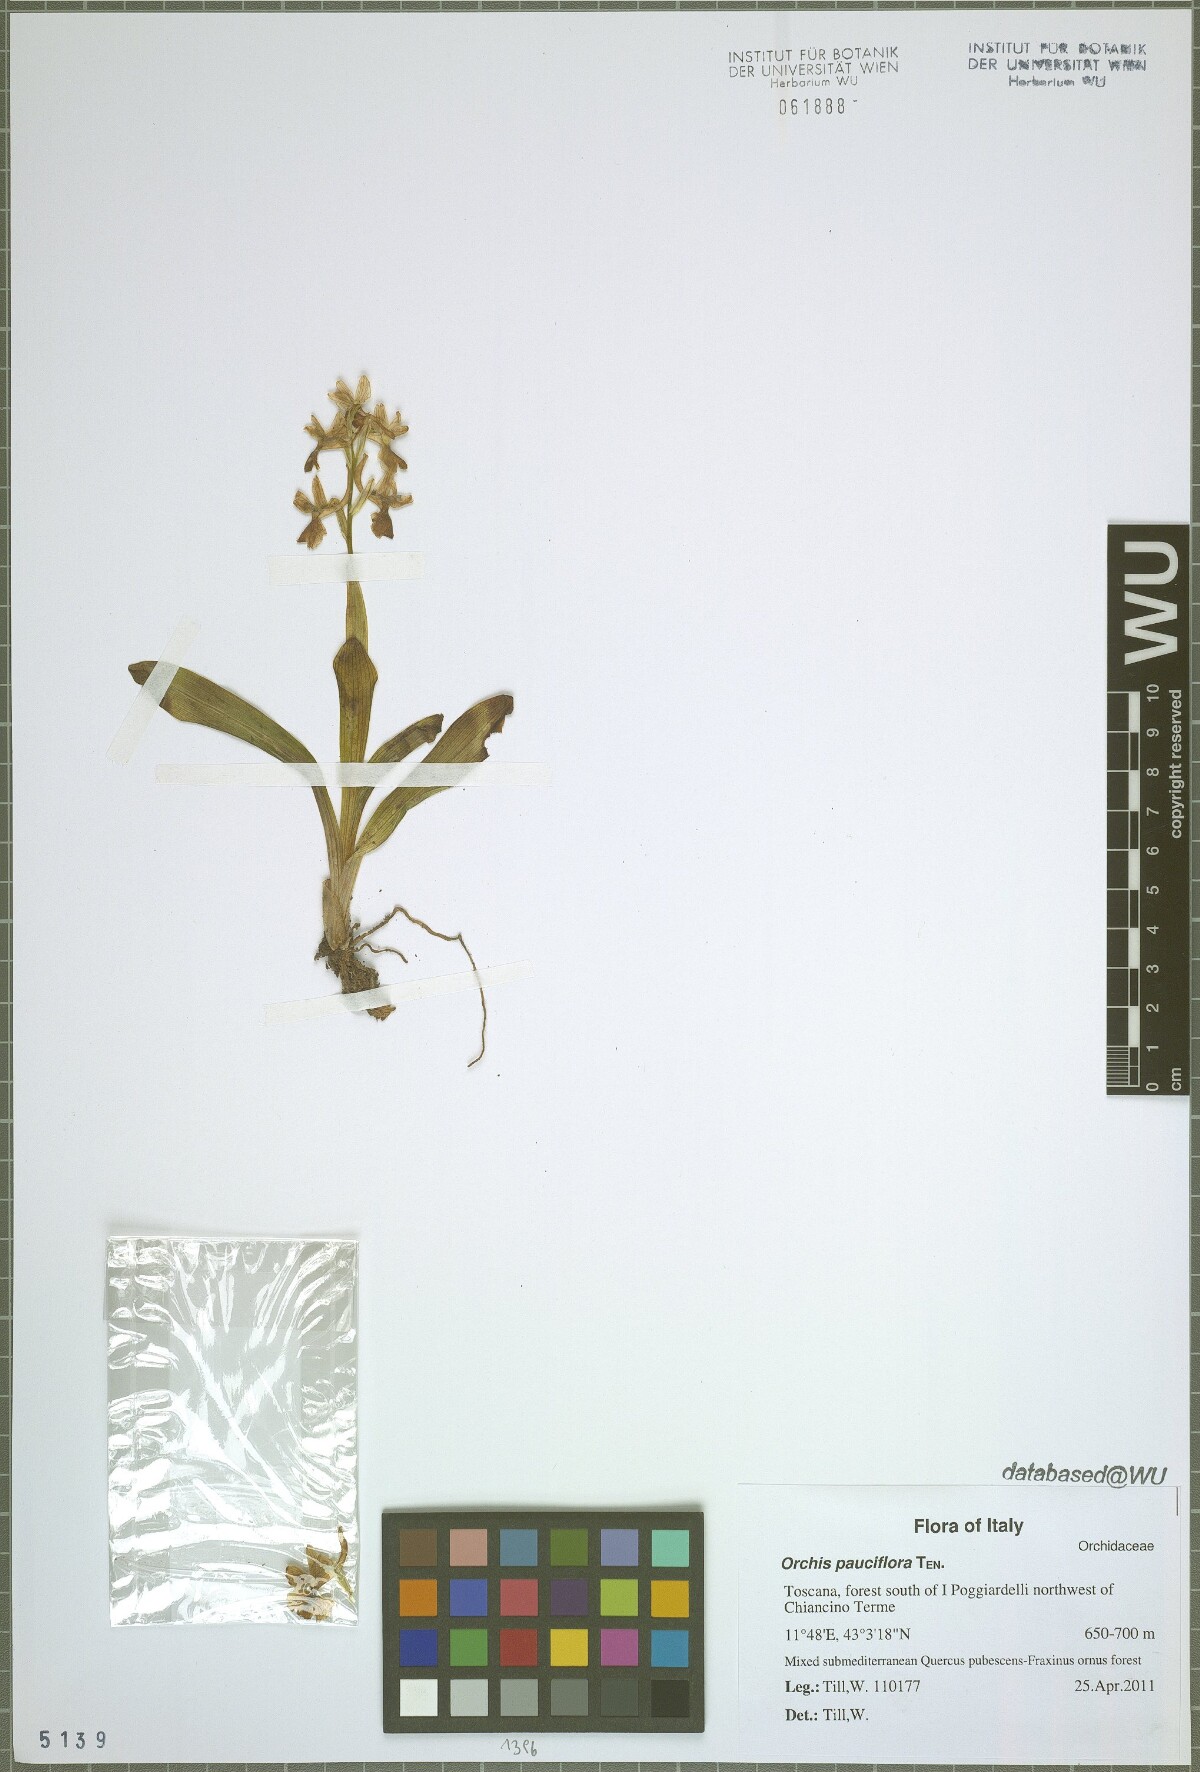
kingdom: Plantae
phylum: Tracheophyta
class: Liliopsida
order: Asparagales
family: Orchidaceae
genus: Orchis
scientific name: Orchis pauciflora
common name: Few-flowered orchid
